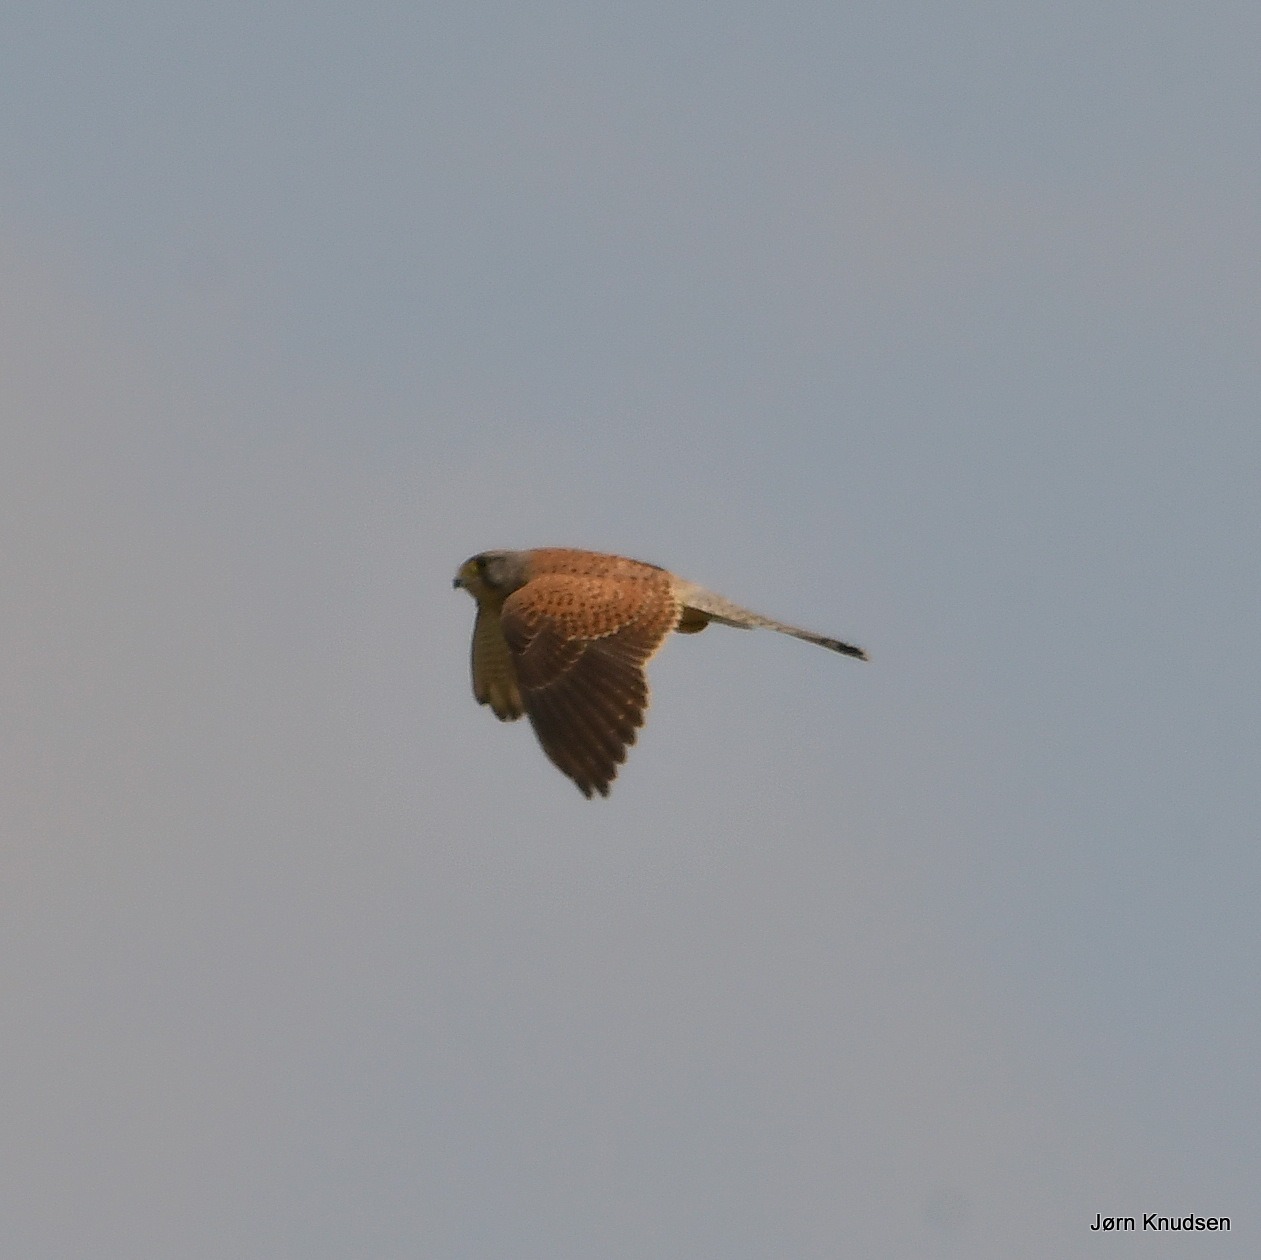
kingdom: Animalia
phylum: Chordata
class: Aves
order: Falconiformes
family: Falconidae
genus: Falco
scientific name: Falco tinnunculus
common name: Tårnfalk
